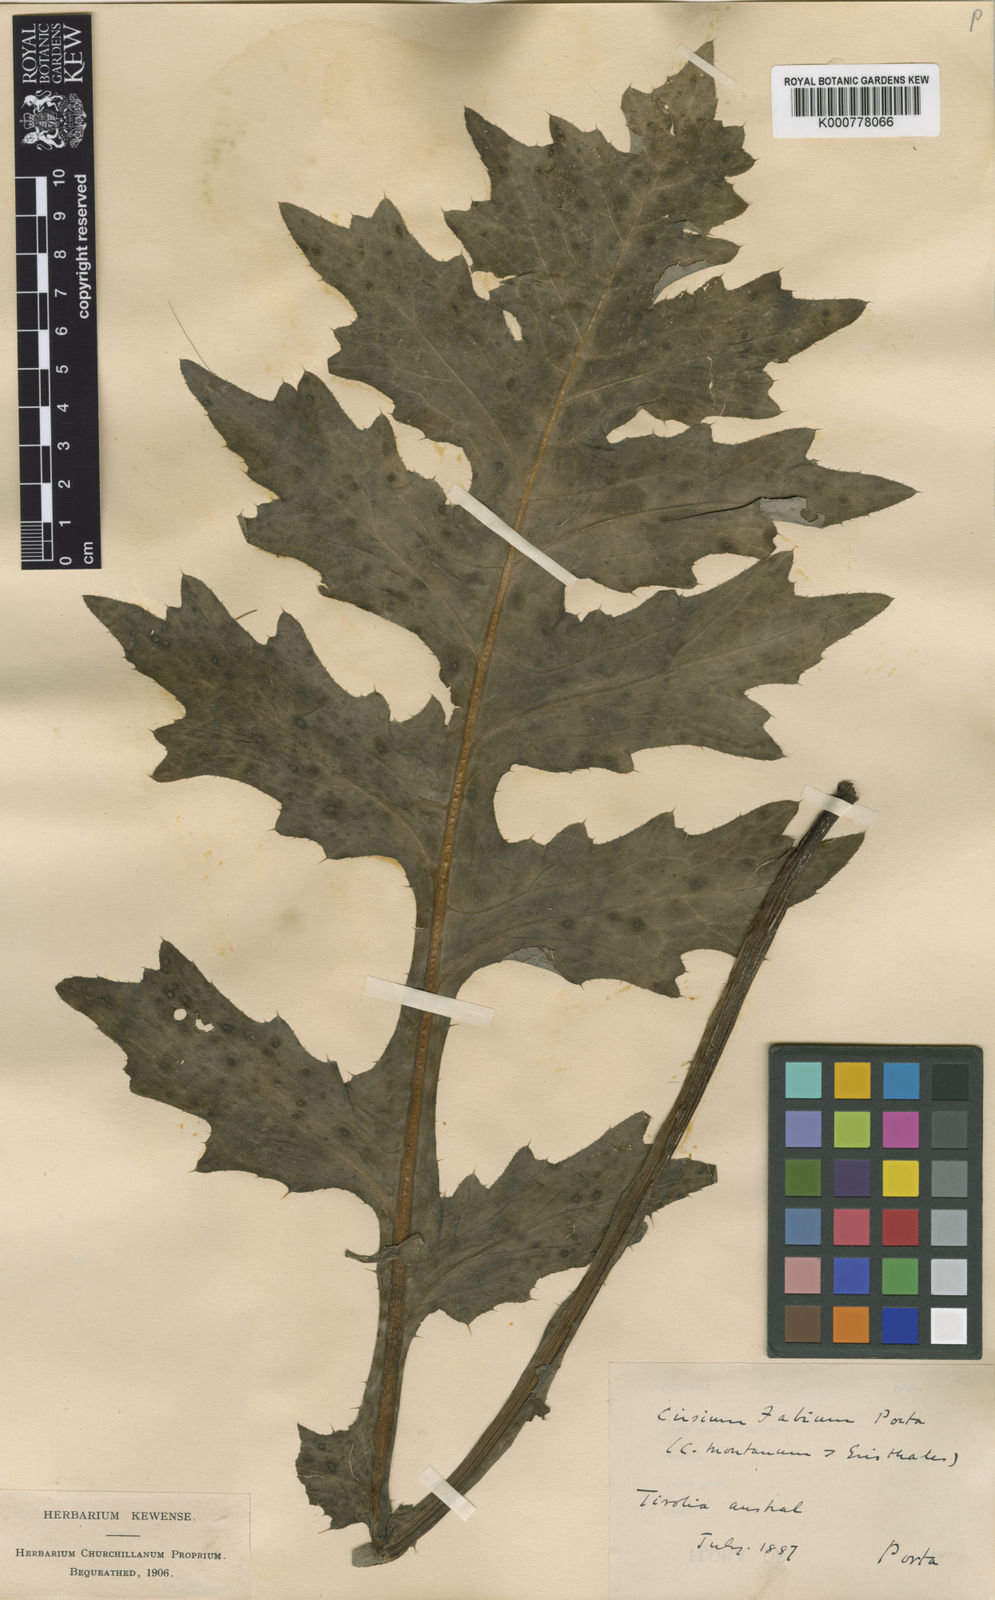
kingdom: Plantae
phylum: Tracheophyta
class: Magnoliopsida
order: Asterales
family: Asteraceae
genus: Cirsium
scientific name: Cirsium erisithales
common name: Yellow thistle
